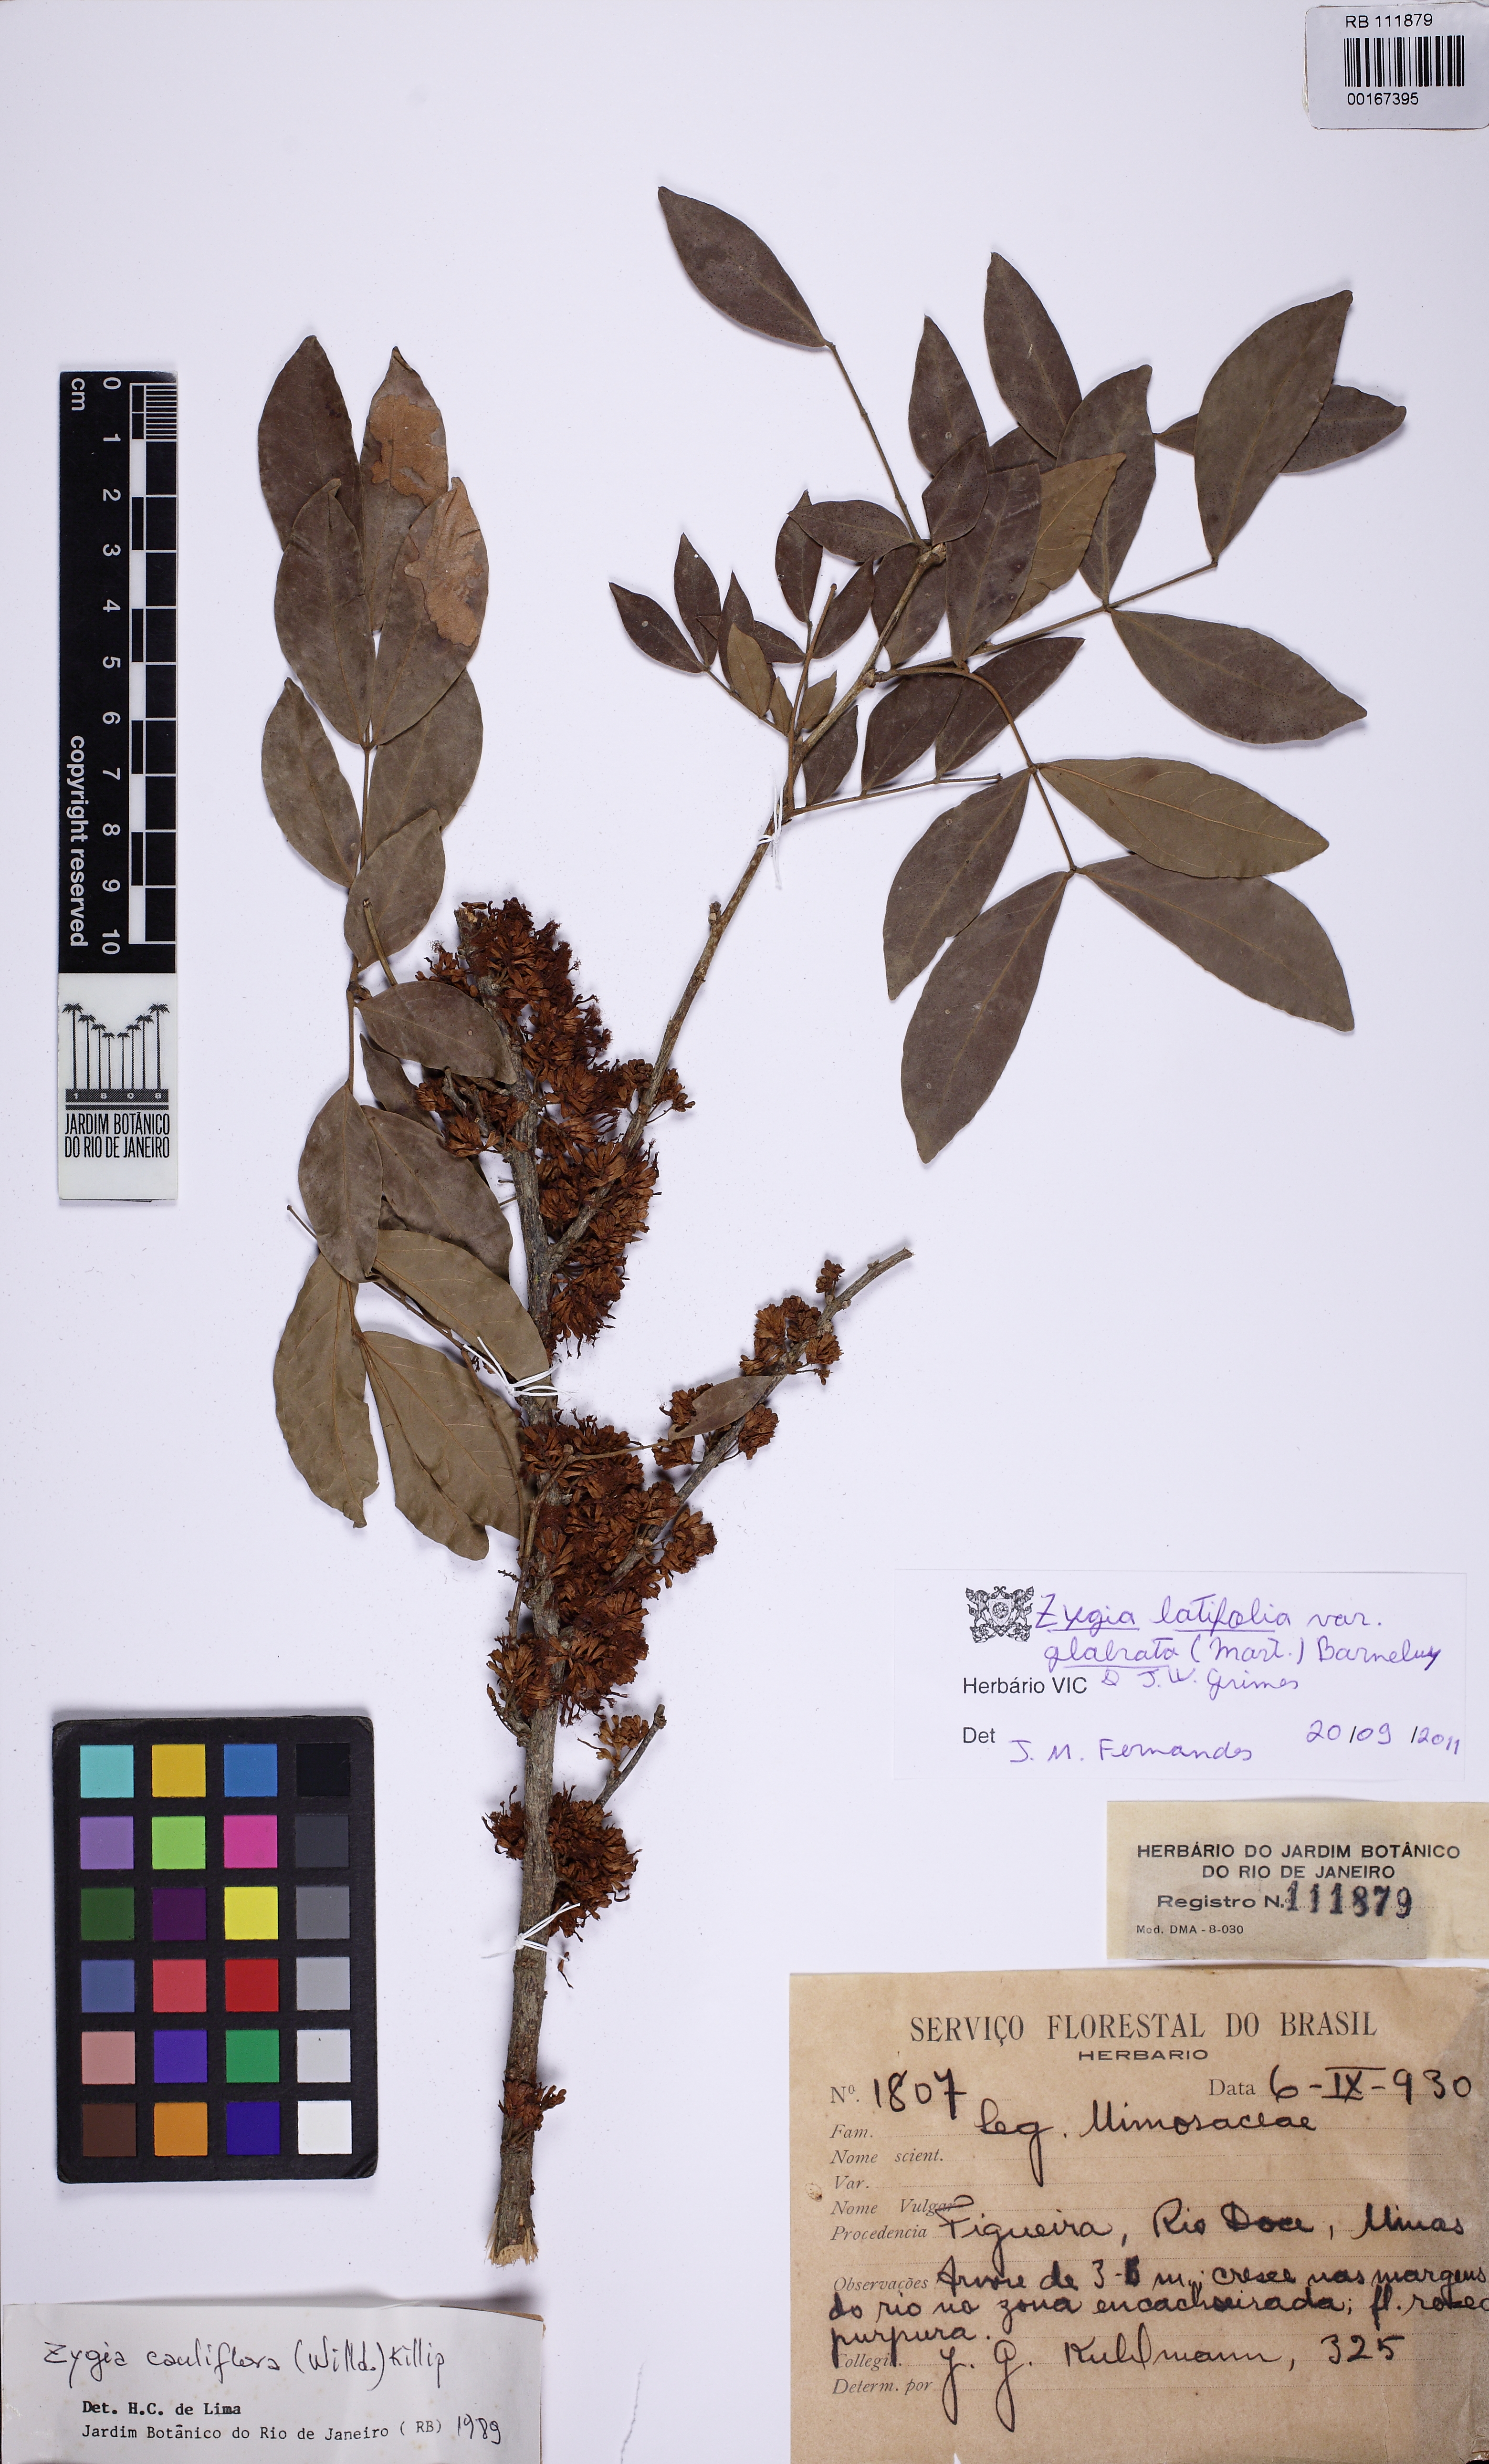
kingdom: Plantae
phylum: Tracheophyta
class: Magnoliopsida
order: Fabales
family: Fabaceae
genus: Zygia
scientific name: Zygia latifolia
